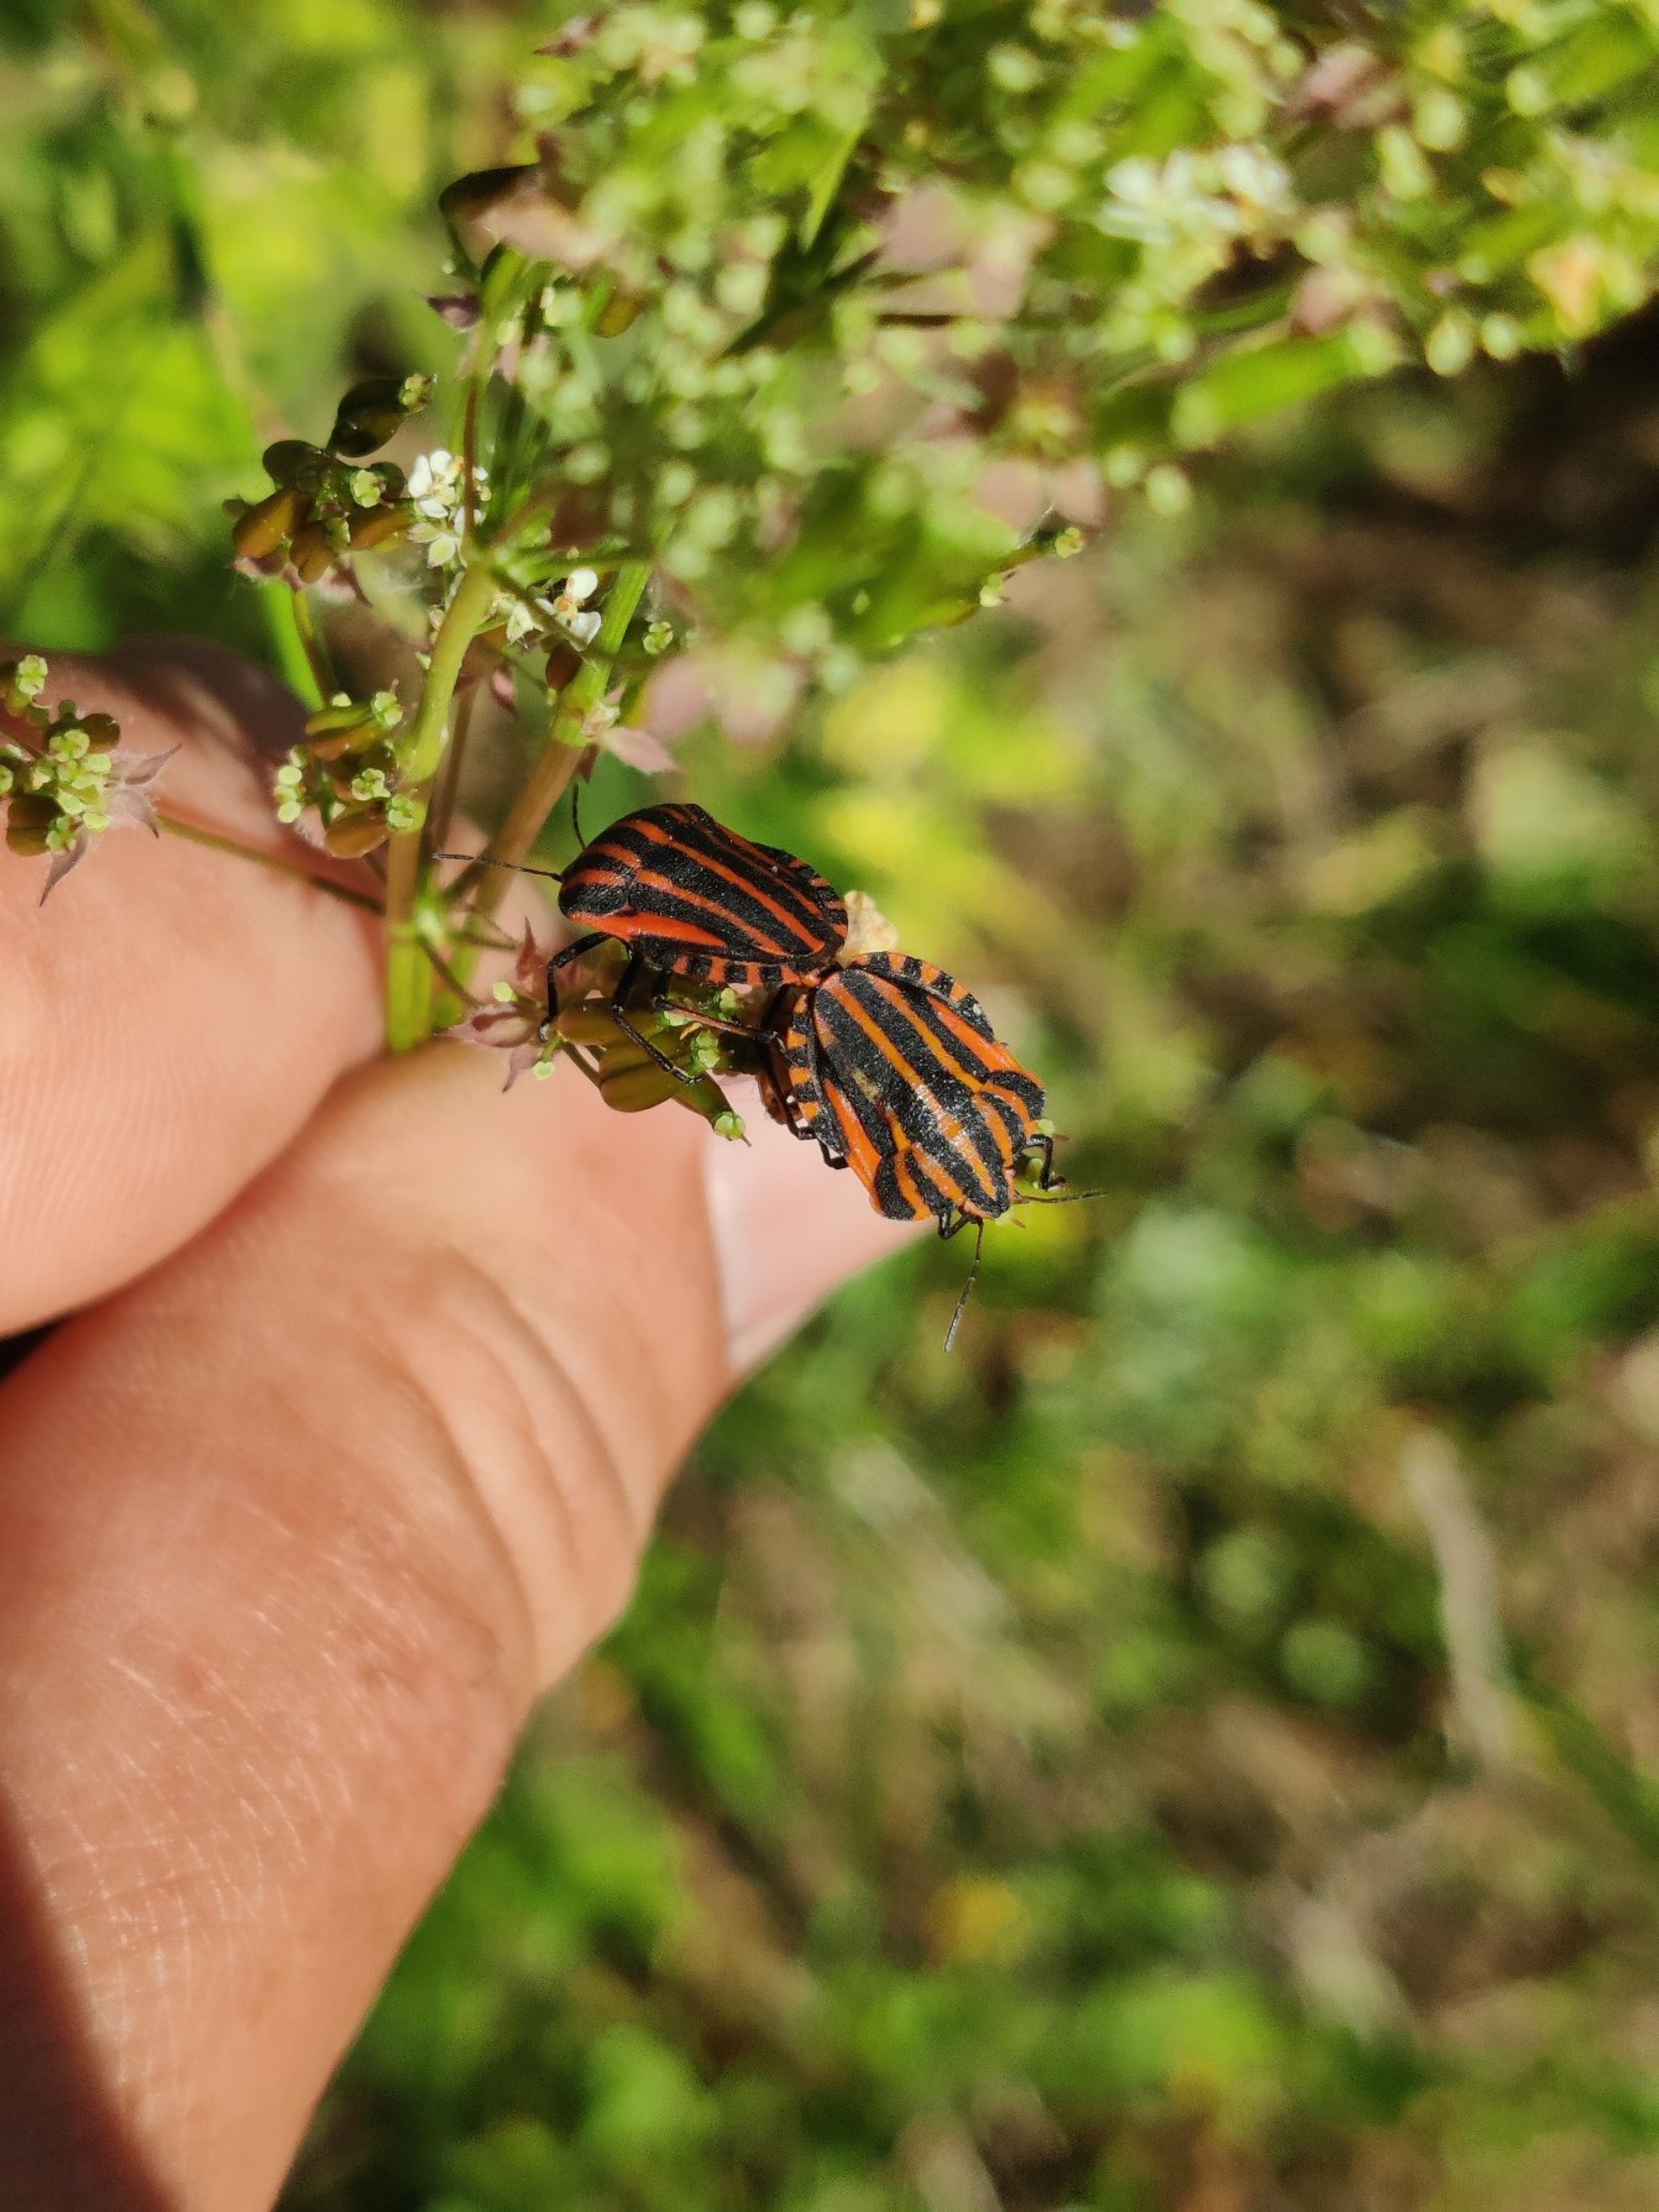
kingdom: Animalia
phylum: Arthropoda
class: Insecta
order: Hemiptera
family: Pentatomidae
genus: Graphosoma
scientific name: Graphosoma italicum
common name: Stribetæge
